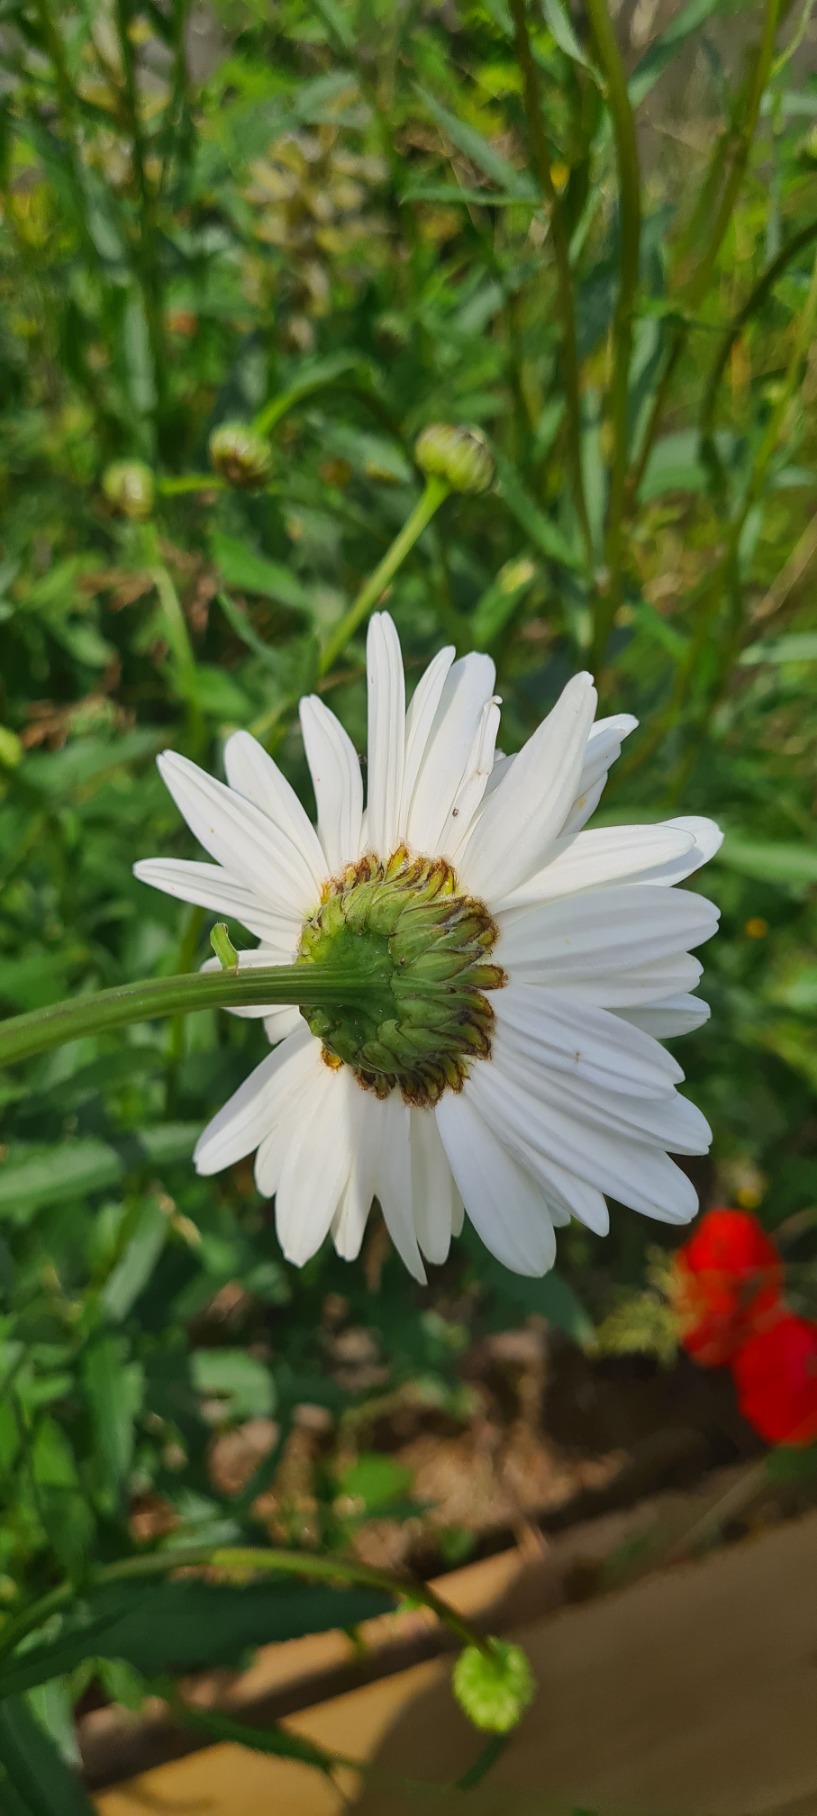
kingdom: Plantae
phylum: Tracheophyta
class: Magnoliopsida
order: Asterales
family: Asteraceae
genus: Leucanthemum
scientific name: Leucanthemum superbum
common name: Kæmpe-margerit
